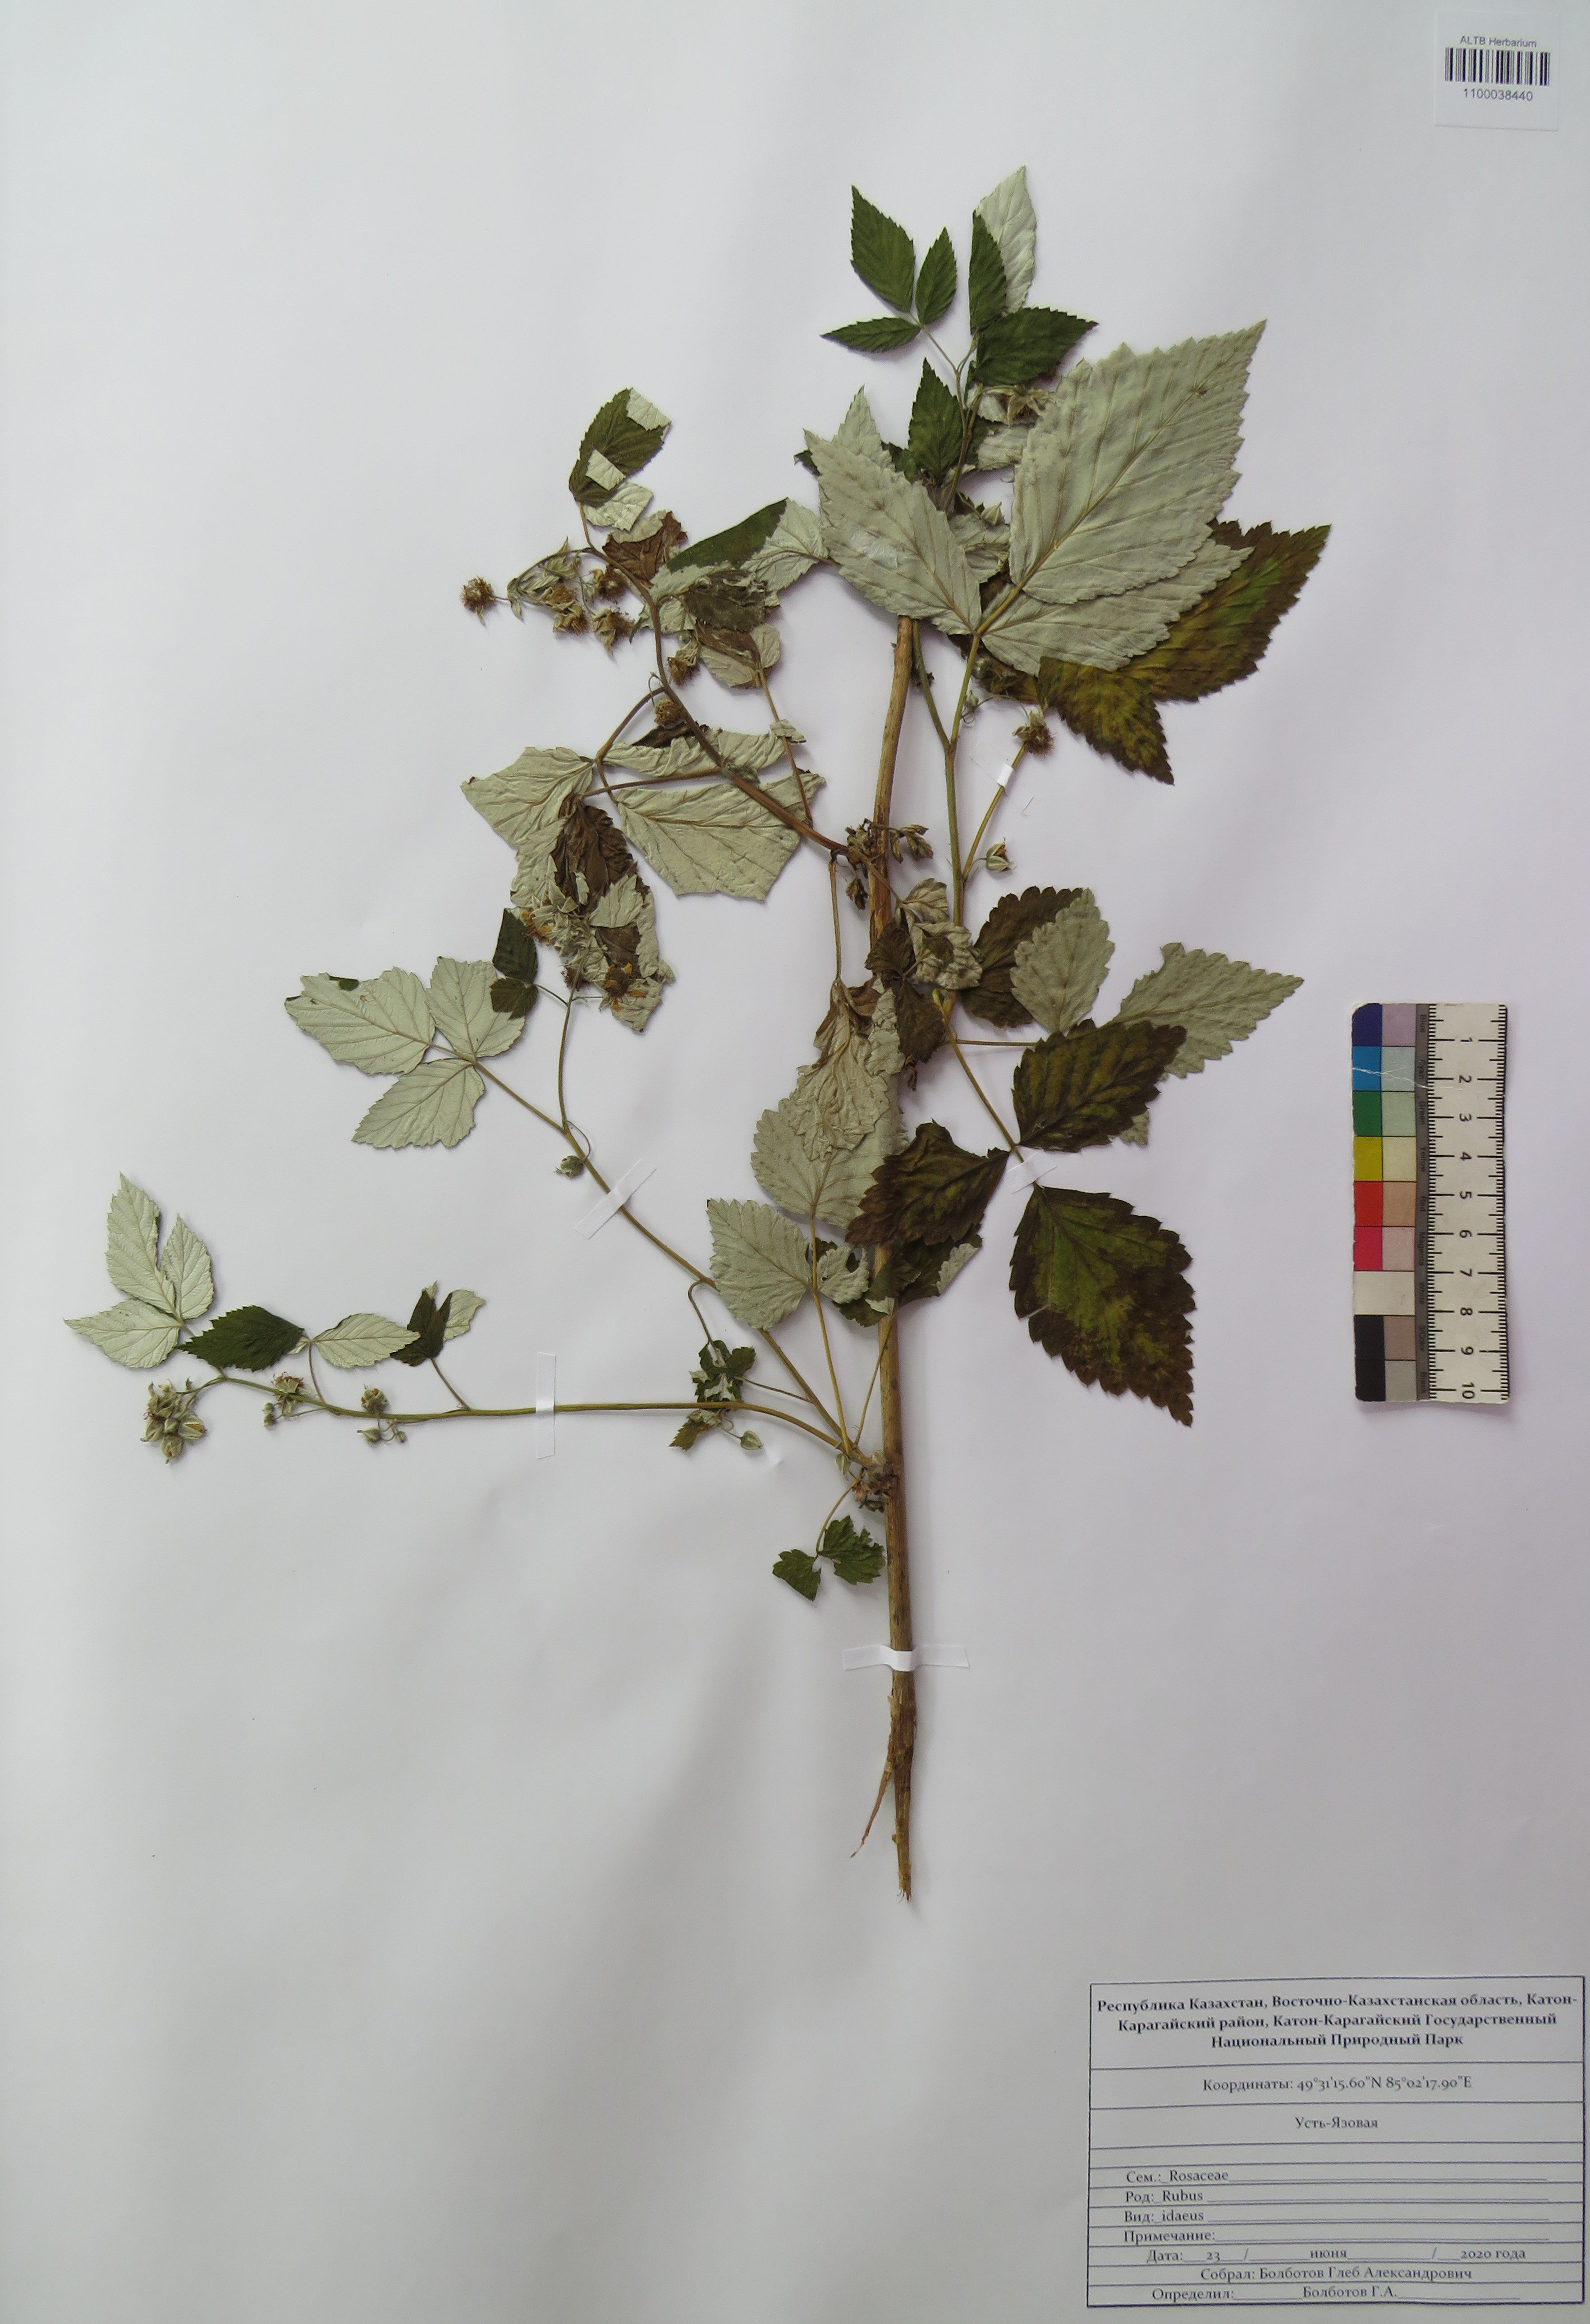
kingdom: Plantae
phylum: Tracheophyta
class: Magnoliopsida
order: Rosales
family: Rosaceae
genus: Rubus
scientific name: Rubus idaeus
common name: Raspberry
